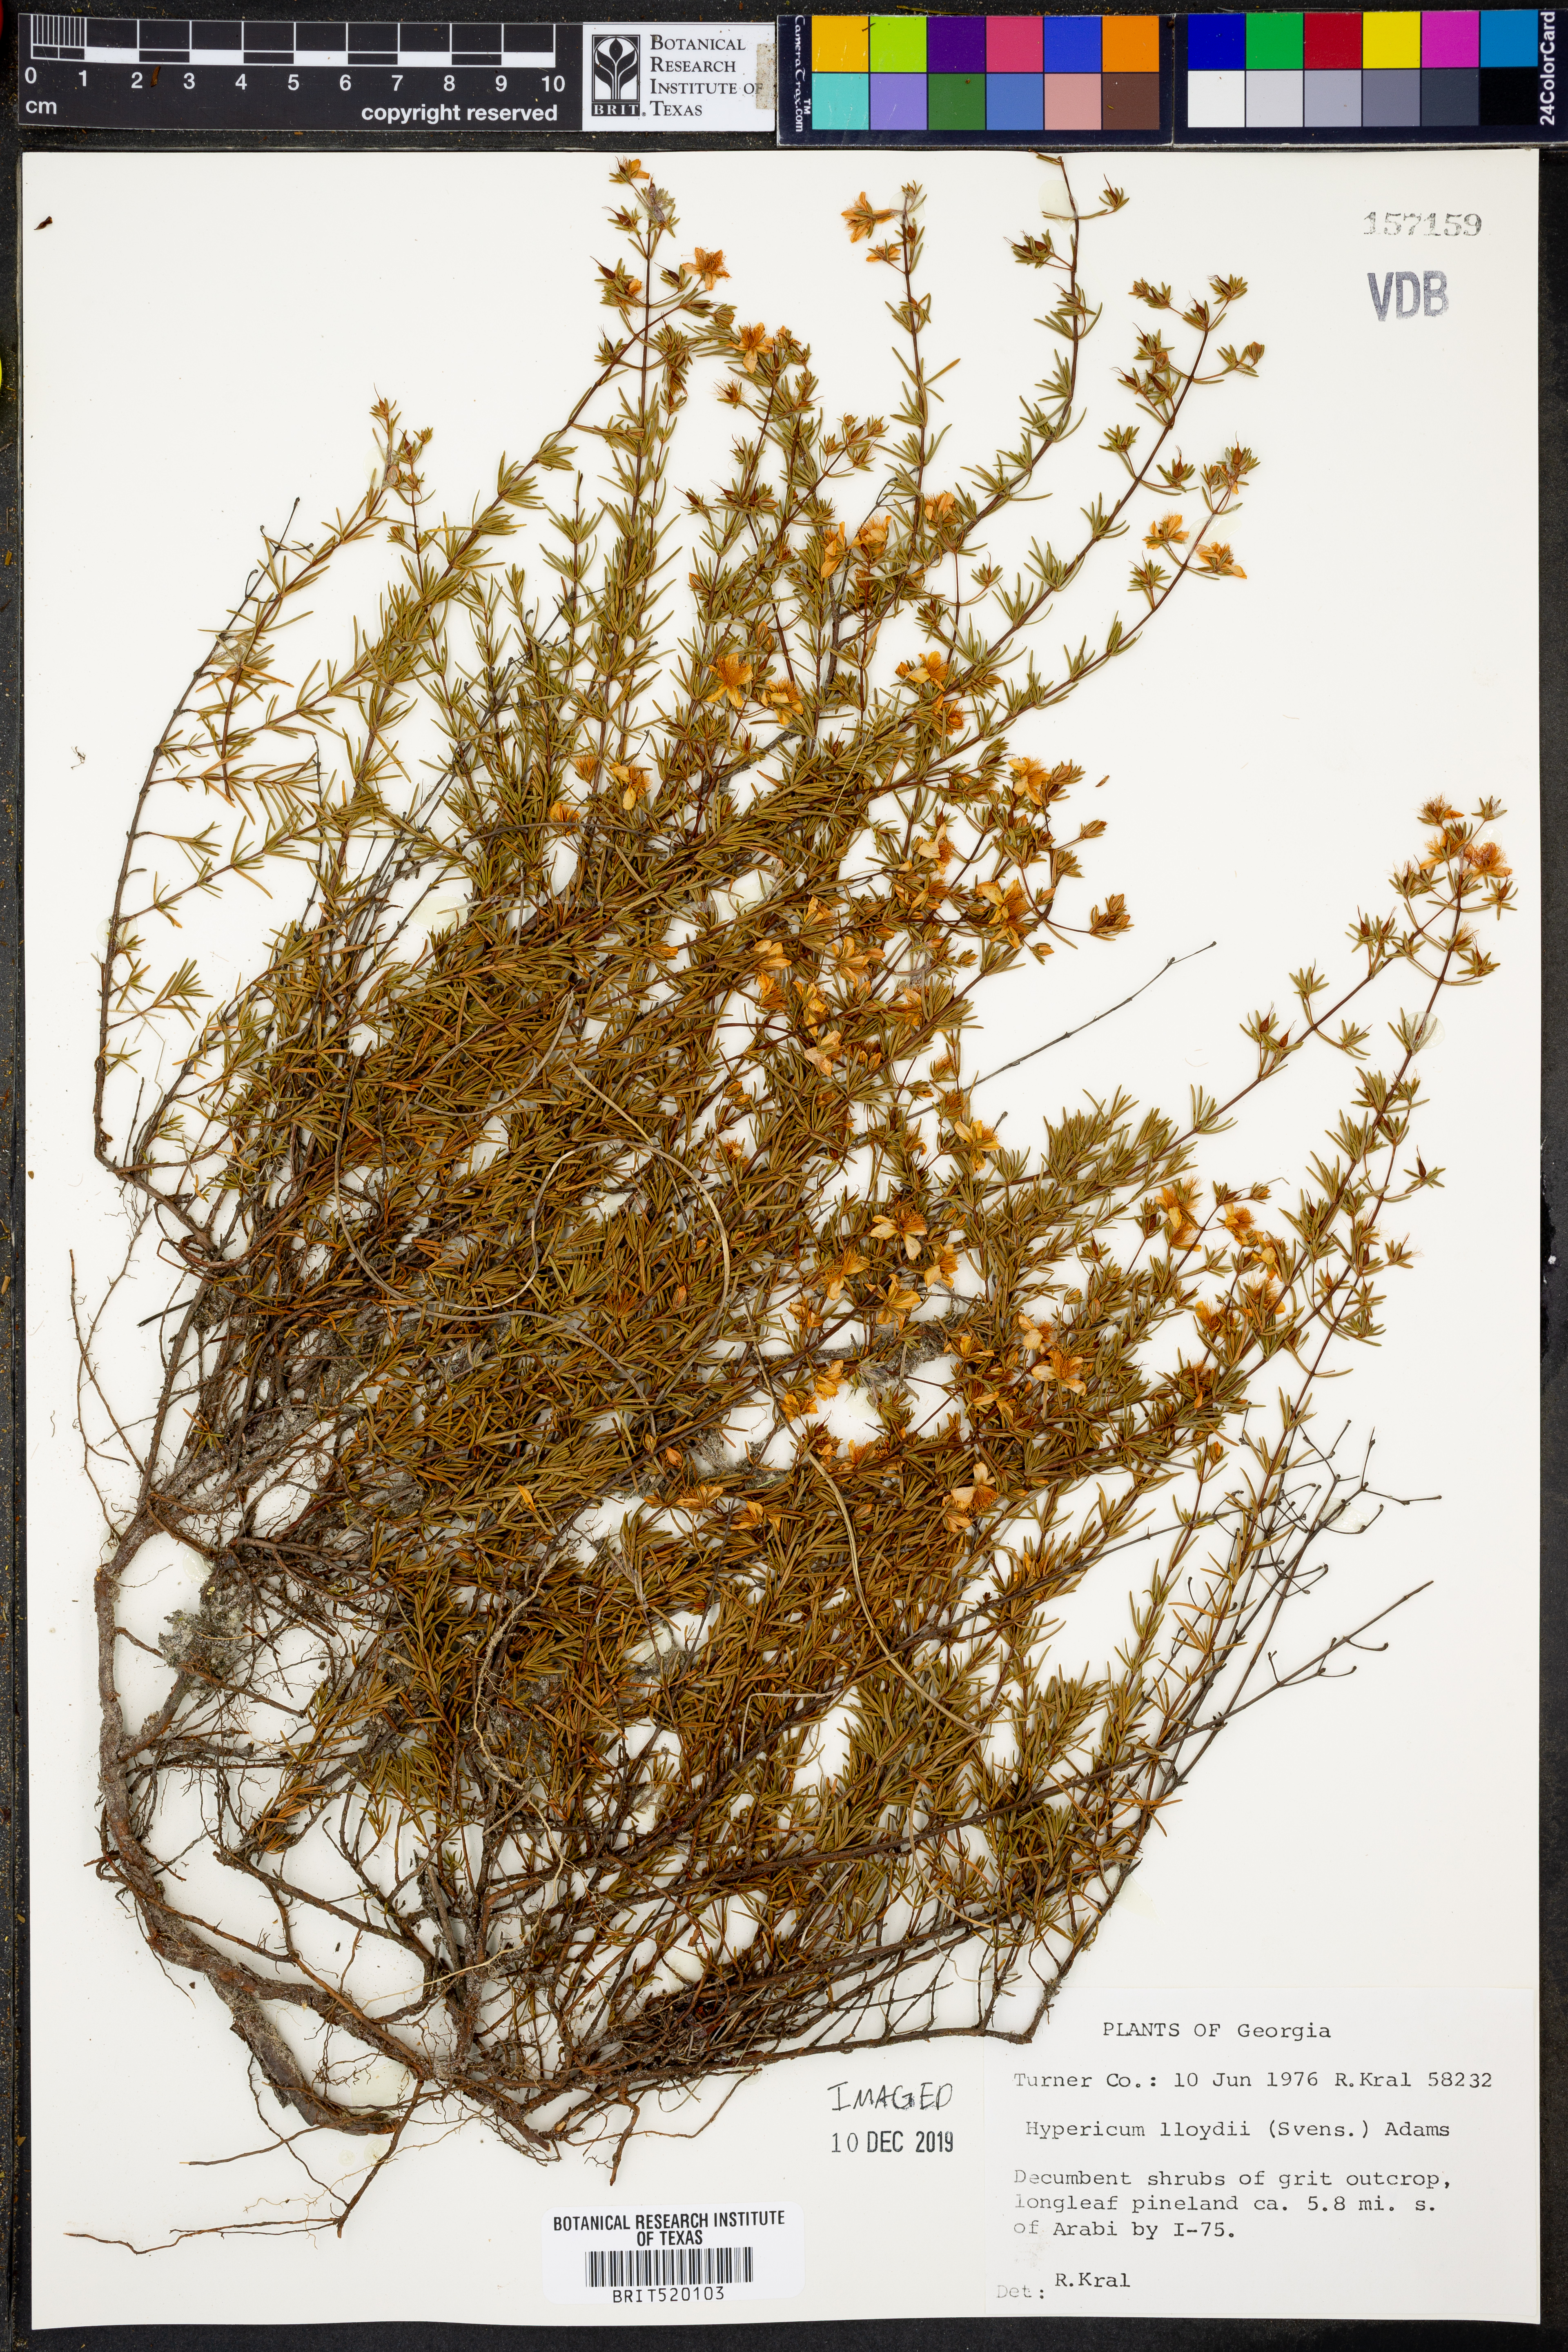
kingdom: Plantae
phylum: Tracheophyta
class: Magnoliopsida
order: Malpighiales
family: Hypericaceae
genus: Hypericum
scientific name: Hypericum lloydii
